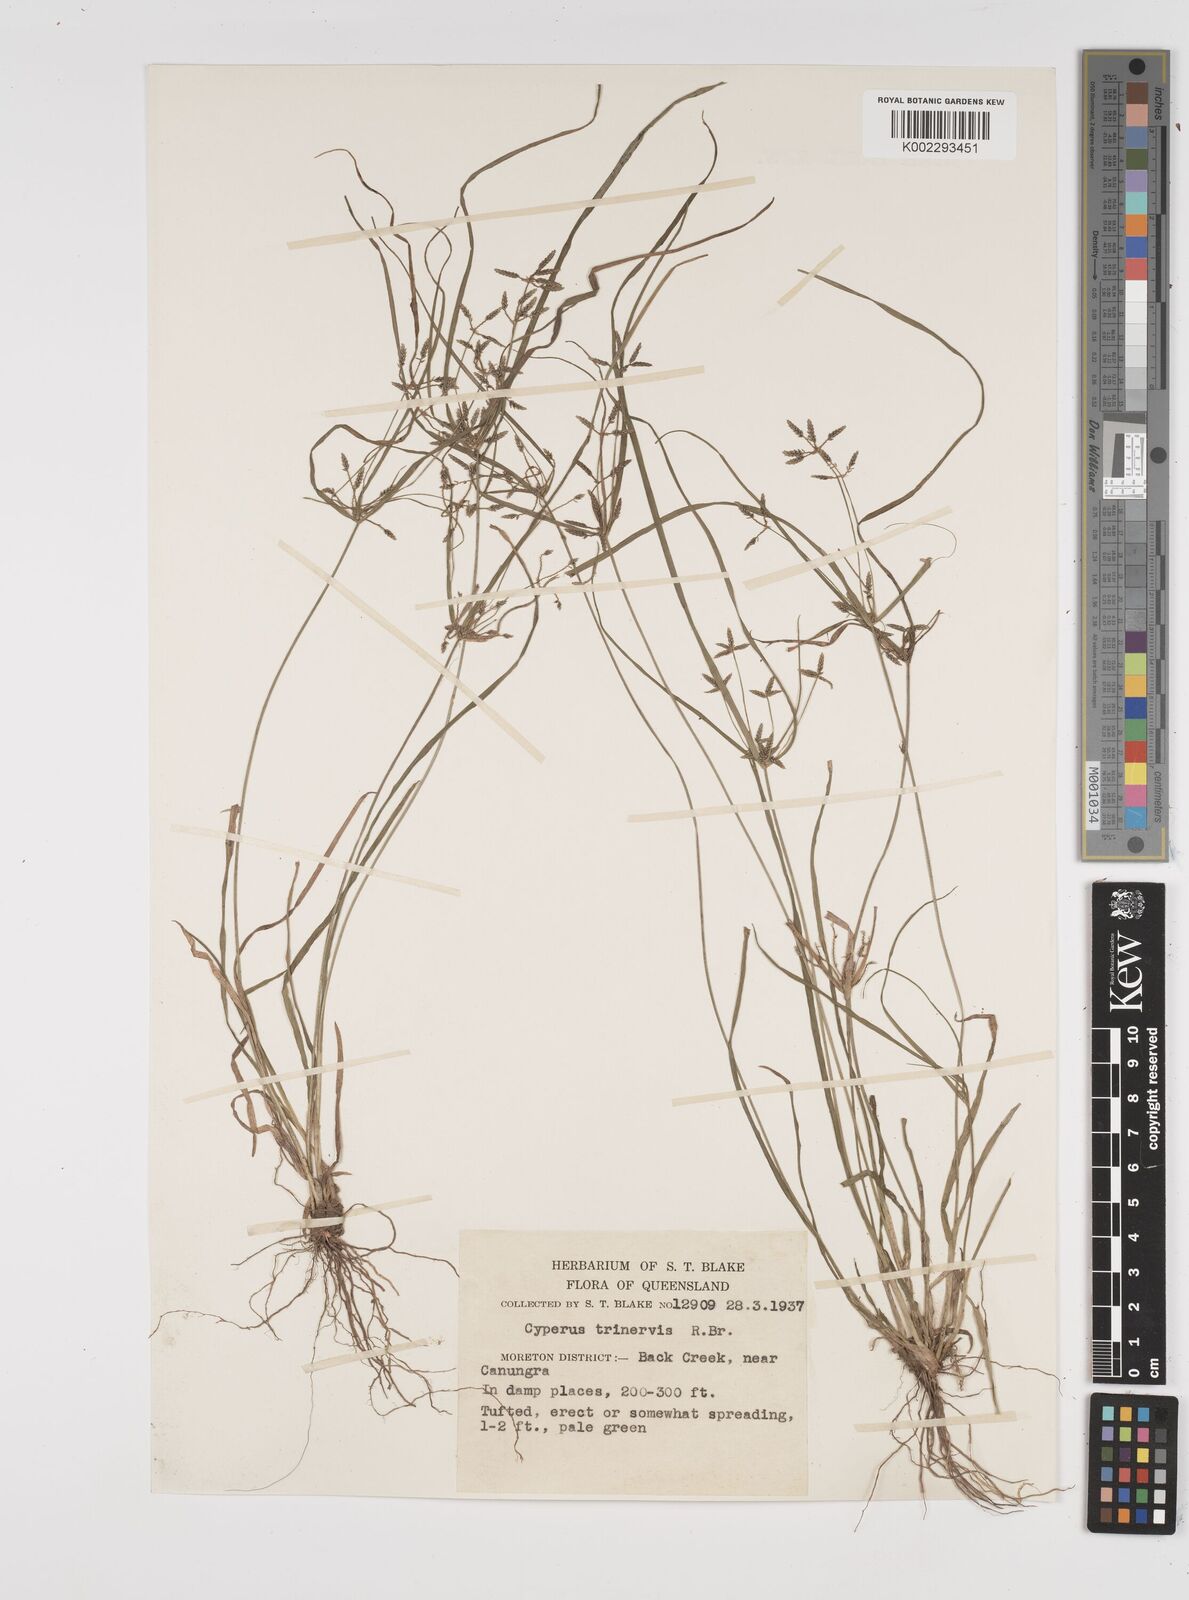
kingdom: Plantae
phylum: Tracheophyta
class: Liliopsida
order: Poales
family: Cyperaceae
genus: Cyperus
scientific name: Cyperus trinervis
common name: Australian flatsedge
